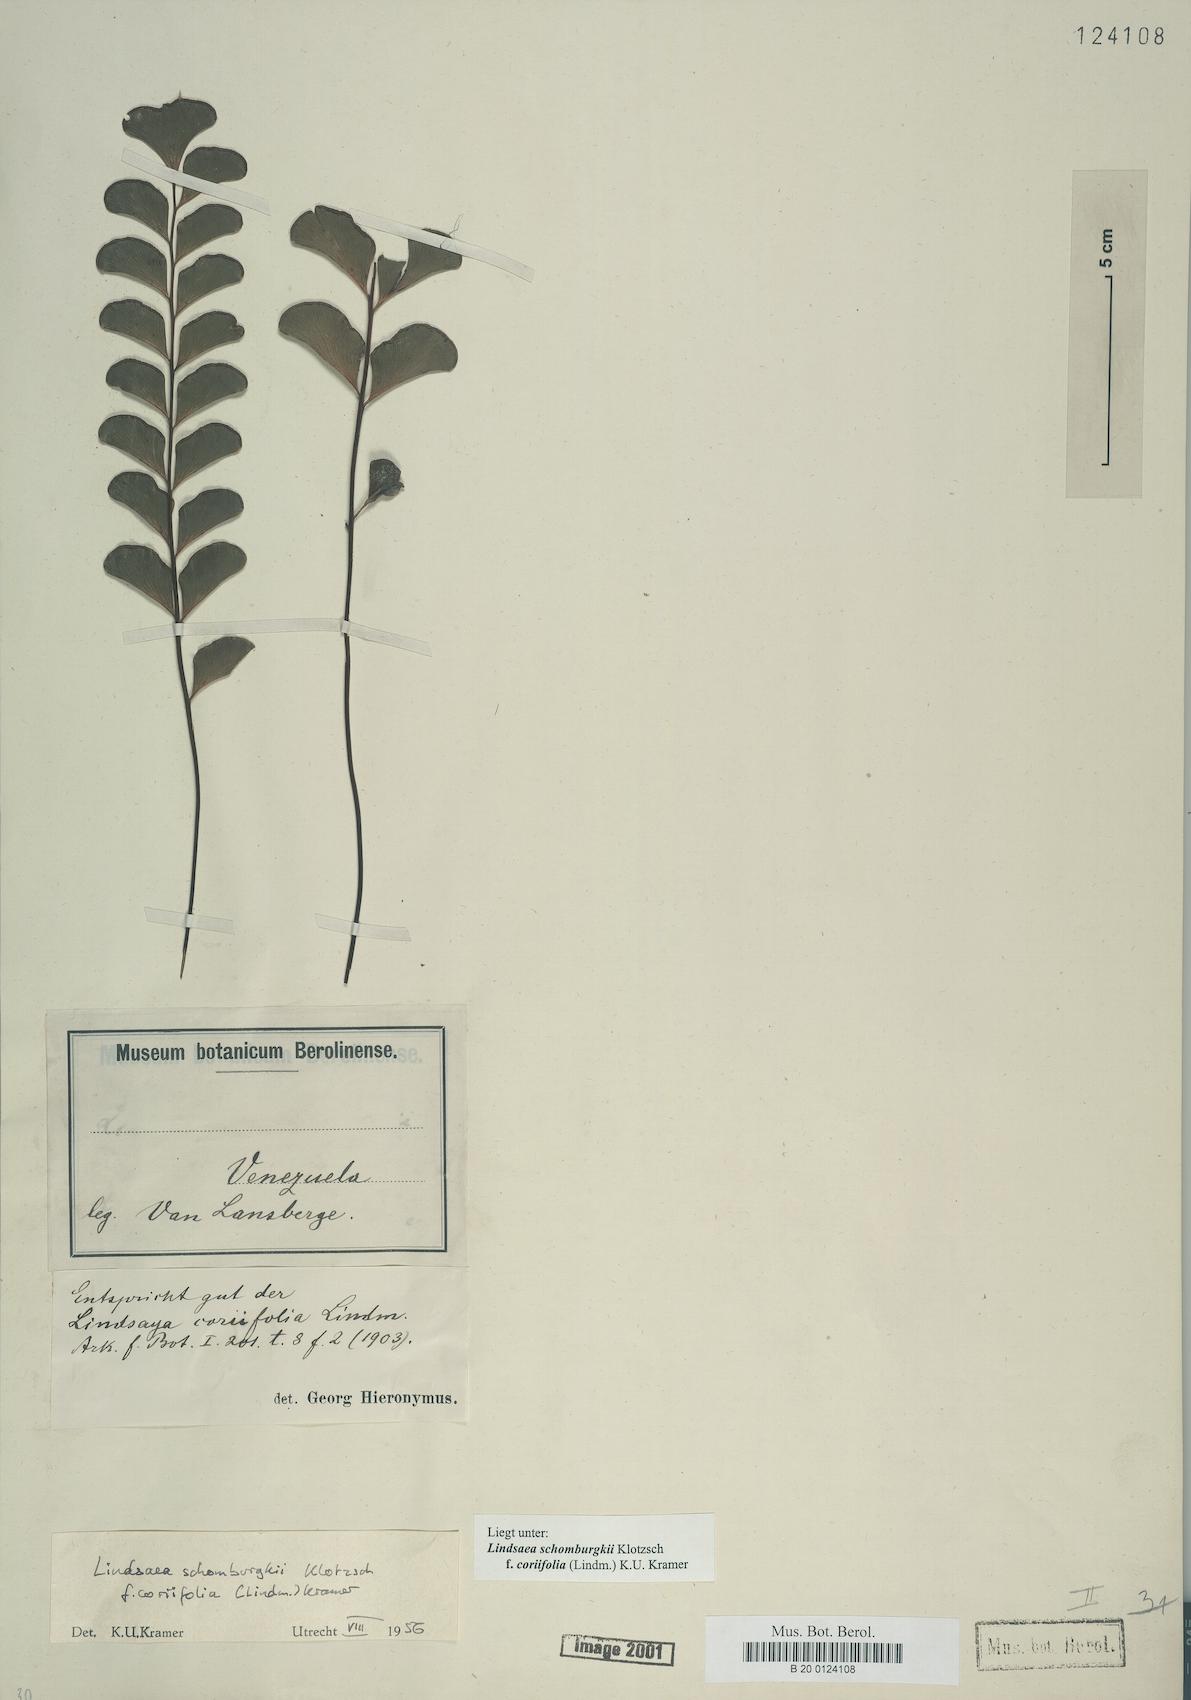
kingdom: Plantae
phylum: Tracheophyta
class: Polypodiopsida
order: Polypodiales
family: Lindsaeaceae
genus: Lindsaea
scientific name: Lindsaea schomburgkii
